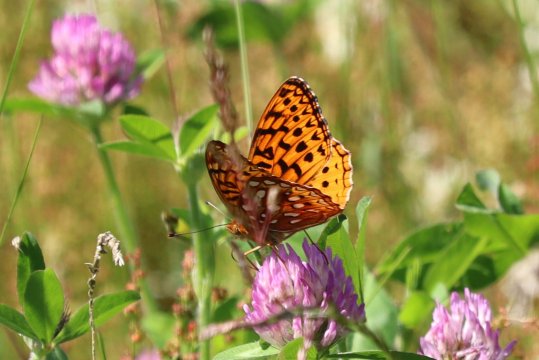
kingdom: Animalia
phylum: Arthropoda
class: Insecta
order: Lepidoptera
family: Nymphalidae
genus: Speyeria
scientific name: Speyeria aphrodite
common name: Aphrodite Fritillary
